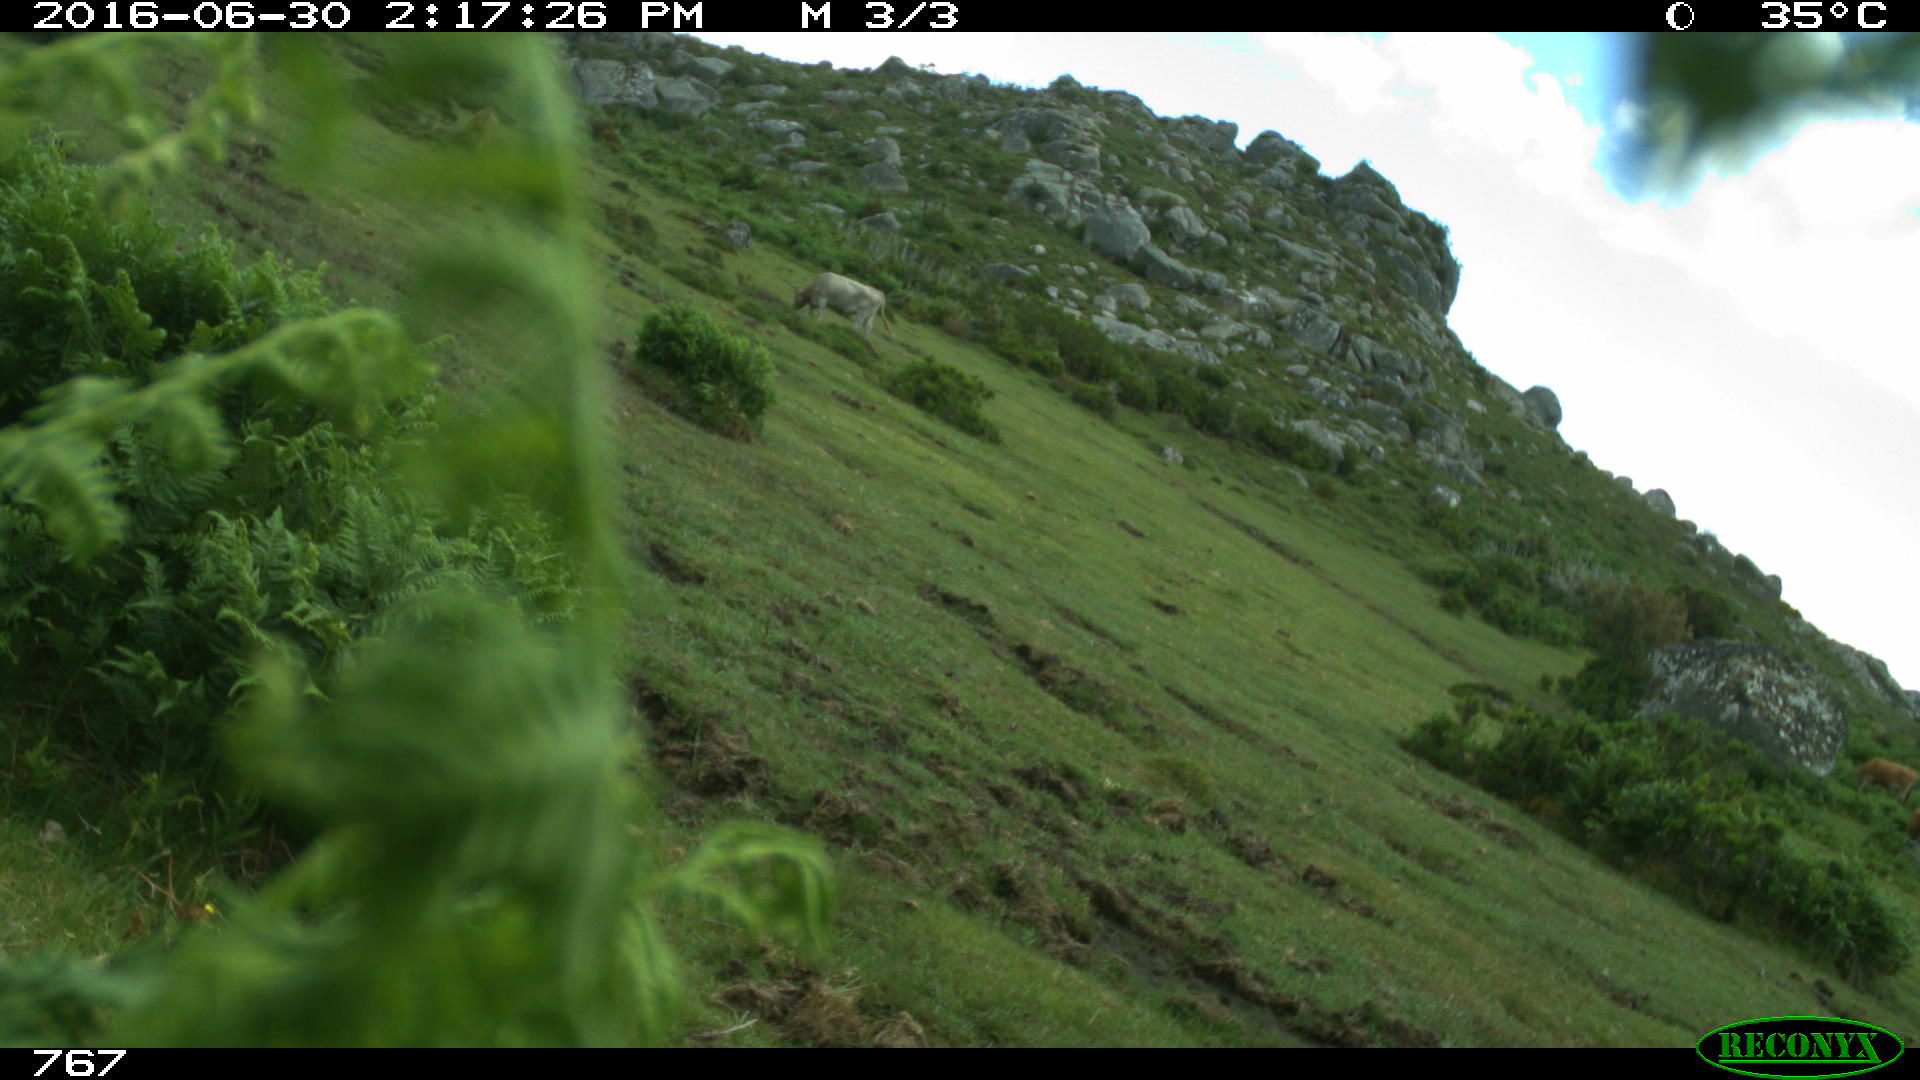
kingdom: Animalia
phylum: Chordata
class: Mammalia
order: Perissodactyla
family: Equidae
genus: Equus
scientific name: Equus caballus
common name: Horse
